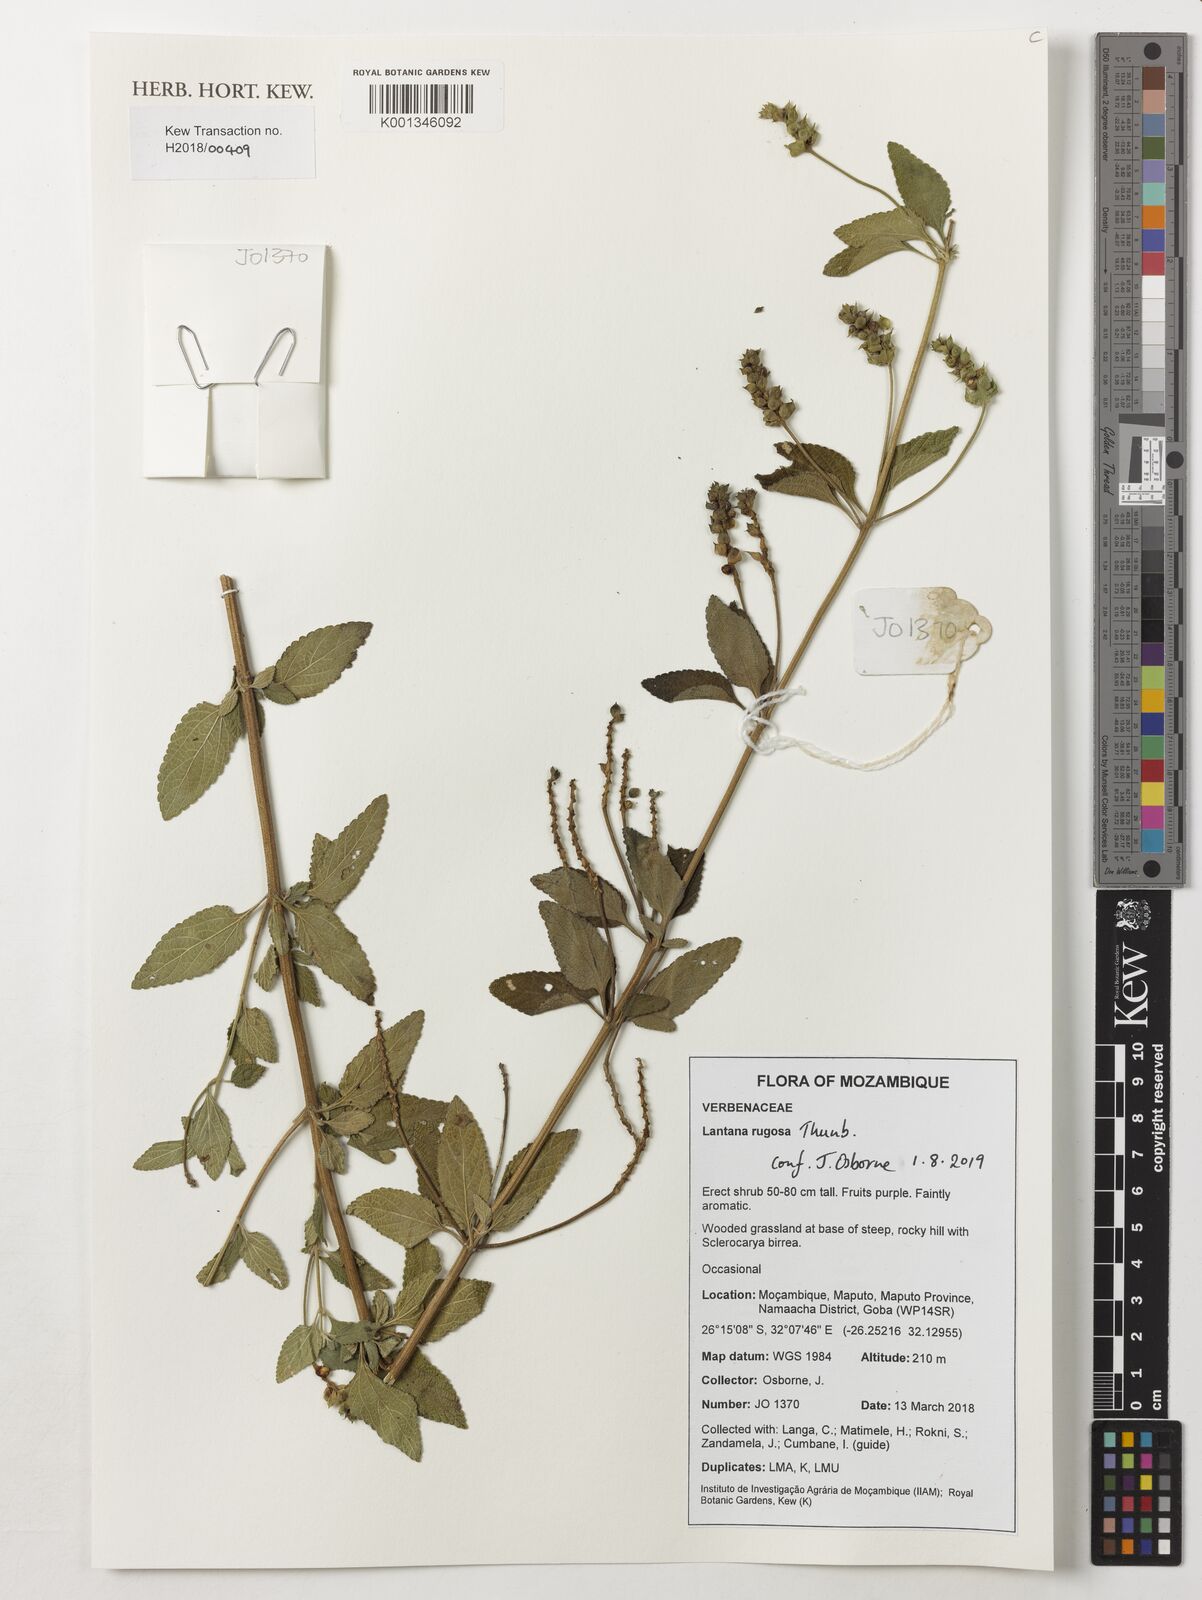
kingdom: Plantae
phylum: Tracheophyta
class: Magnoliopsida
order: Lamiales
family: Verbenaceae
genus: Lantana
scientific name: Lantana rugosa
